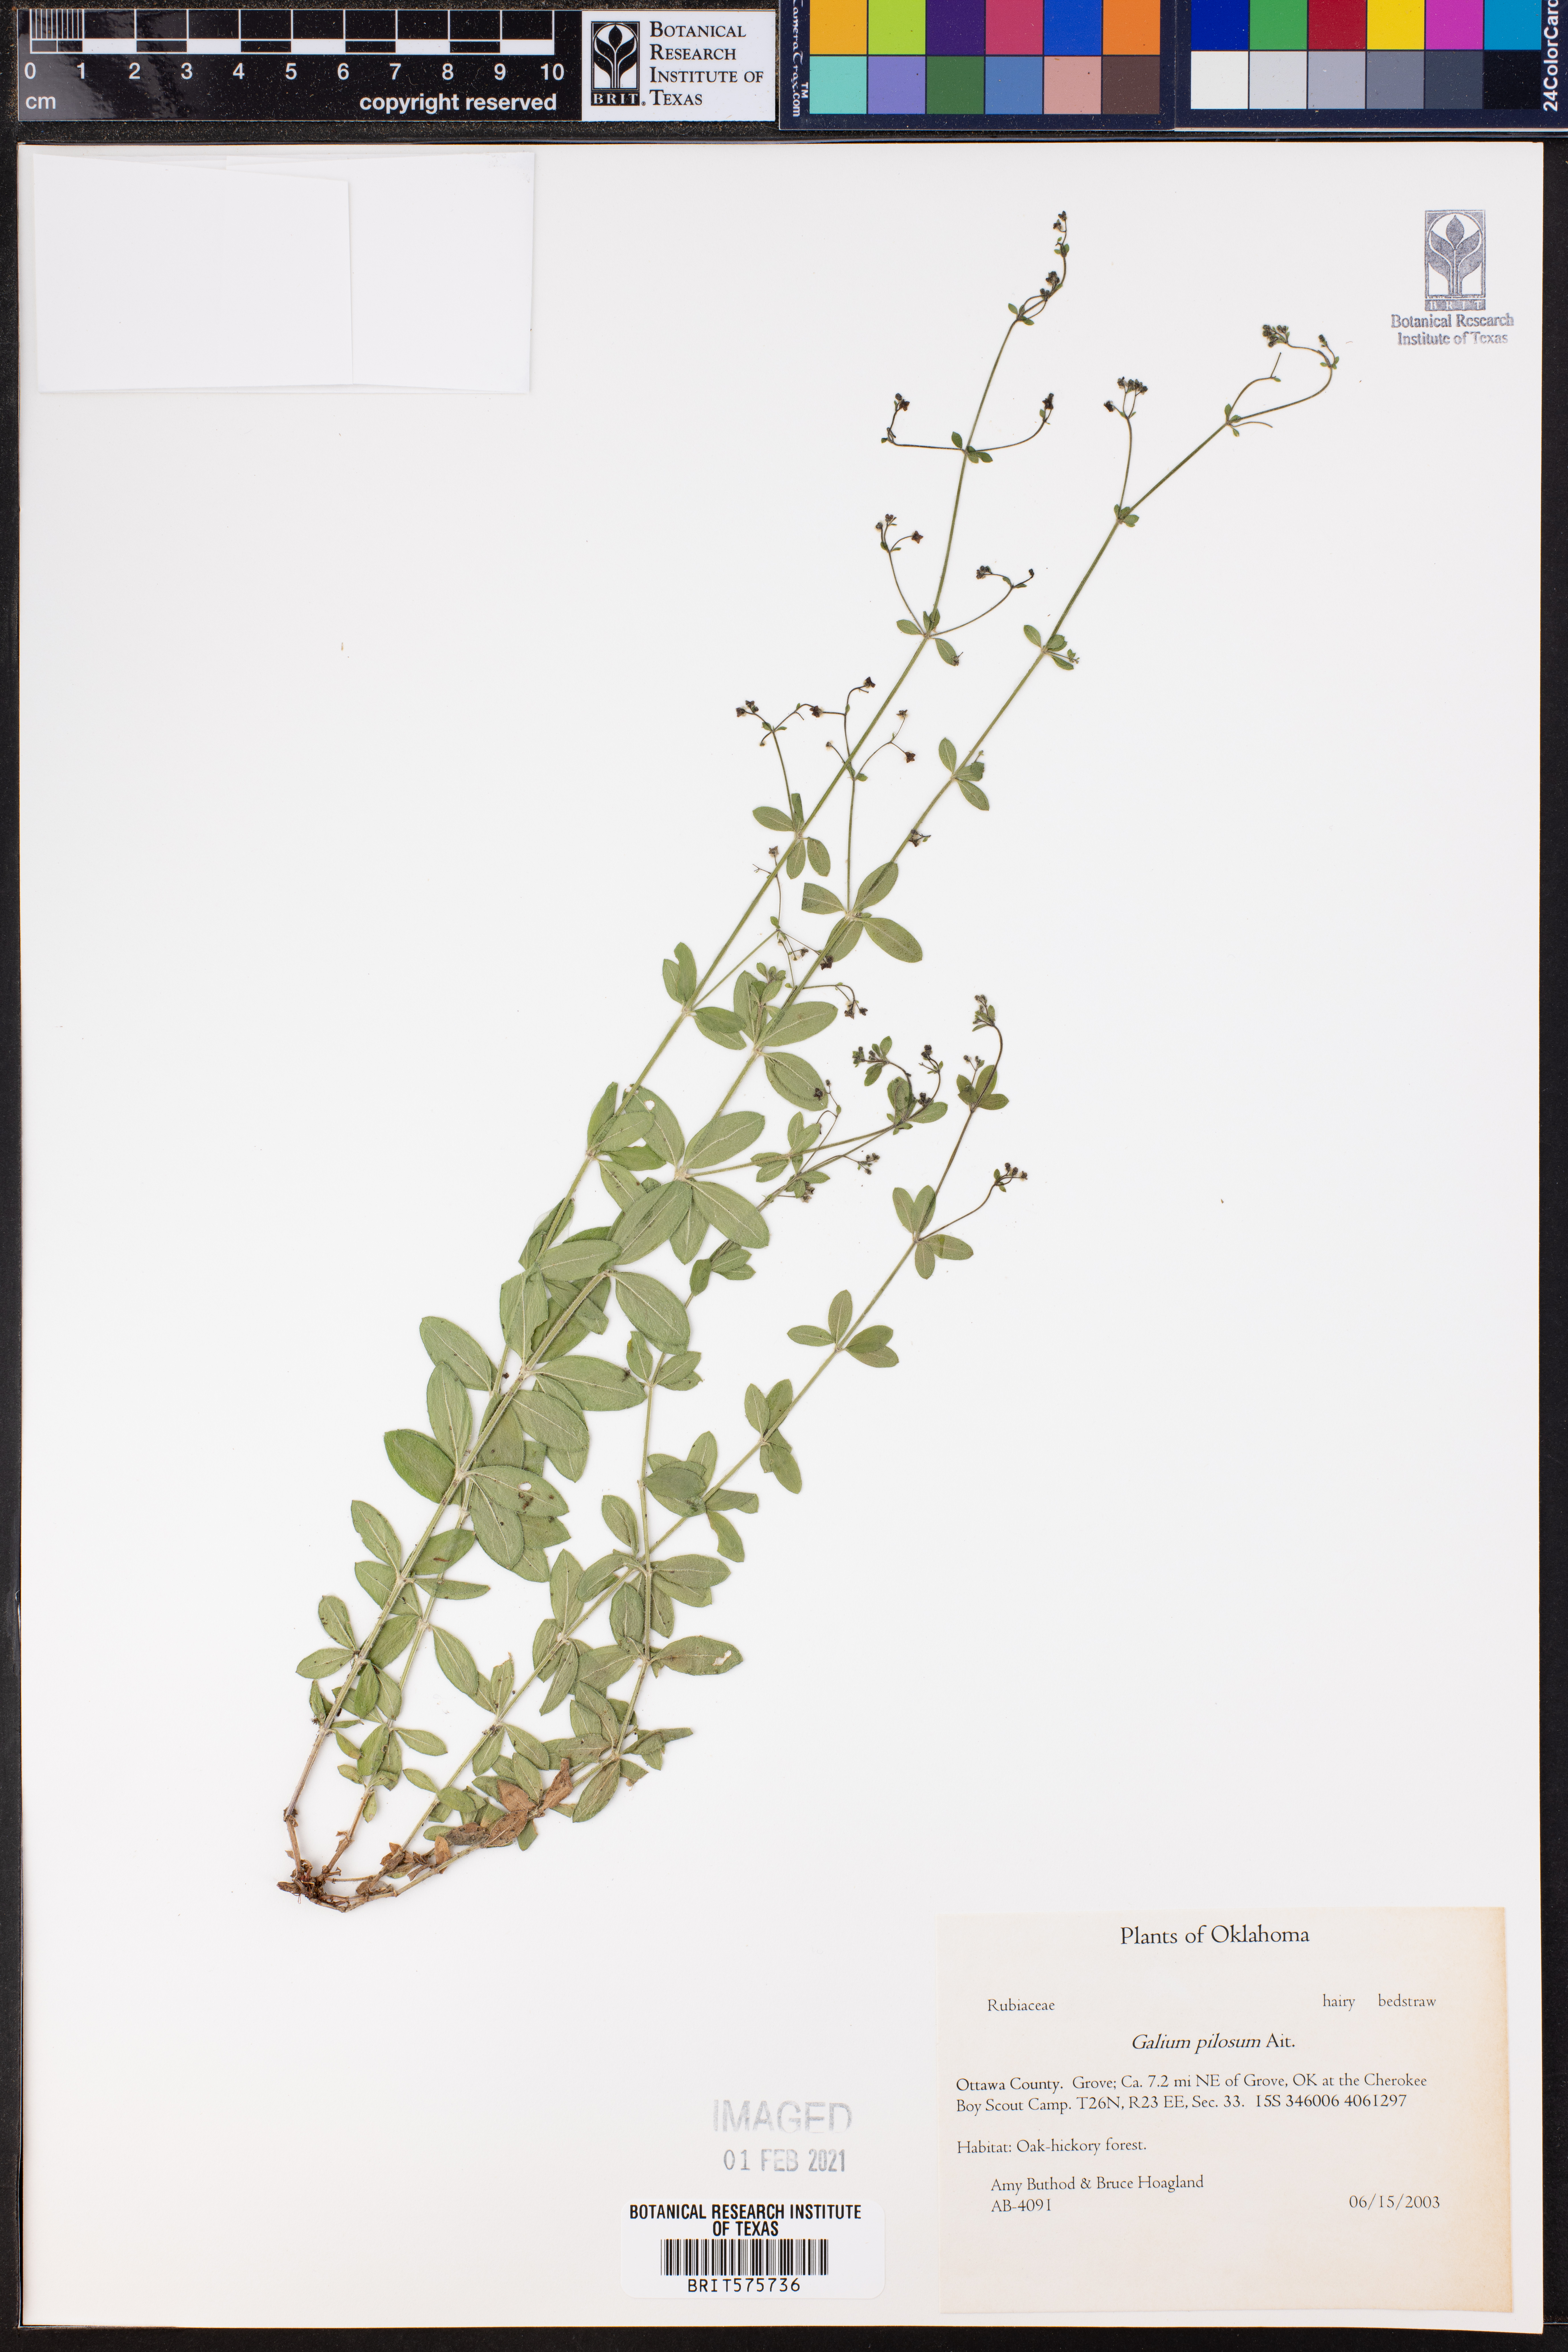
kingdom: Plantae
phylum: Tracheophyta
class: Magnoliopsida
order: Gentianales
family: Rubiaceae
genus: Galium
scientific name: Galium pilosum
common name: Hairy bedstraw
